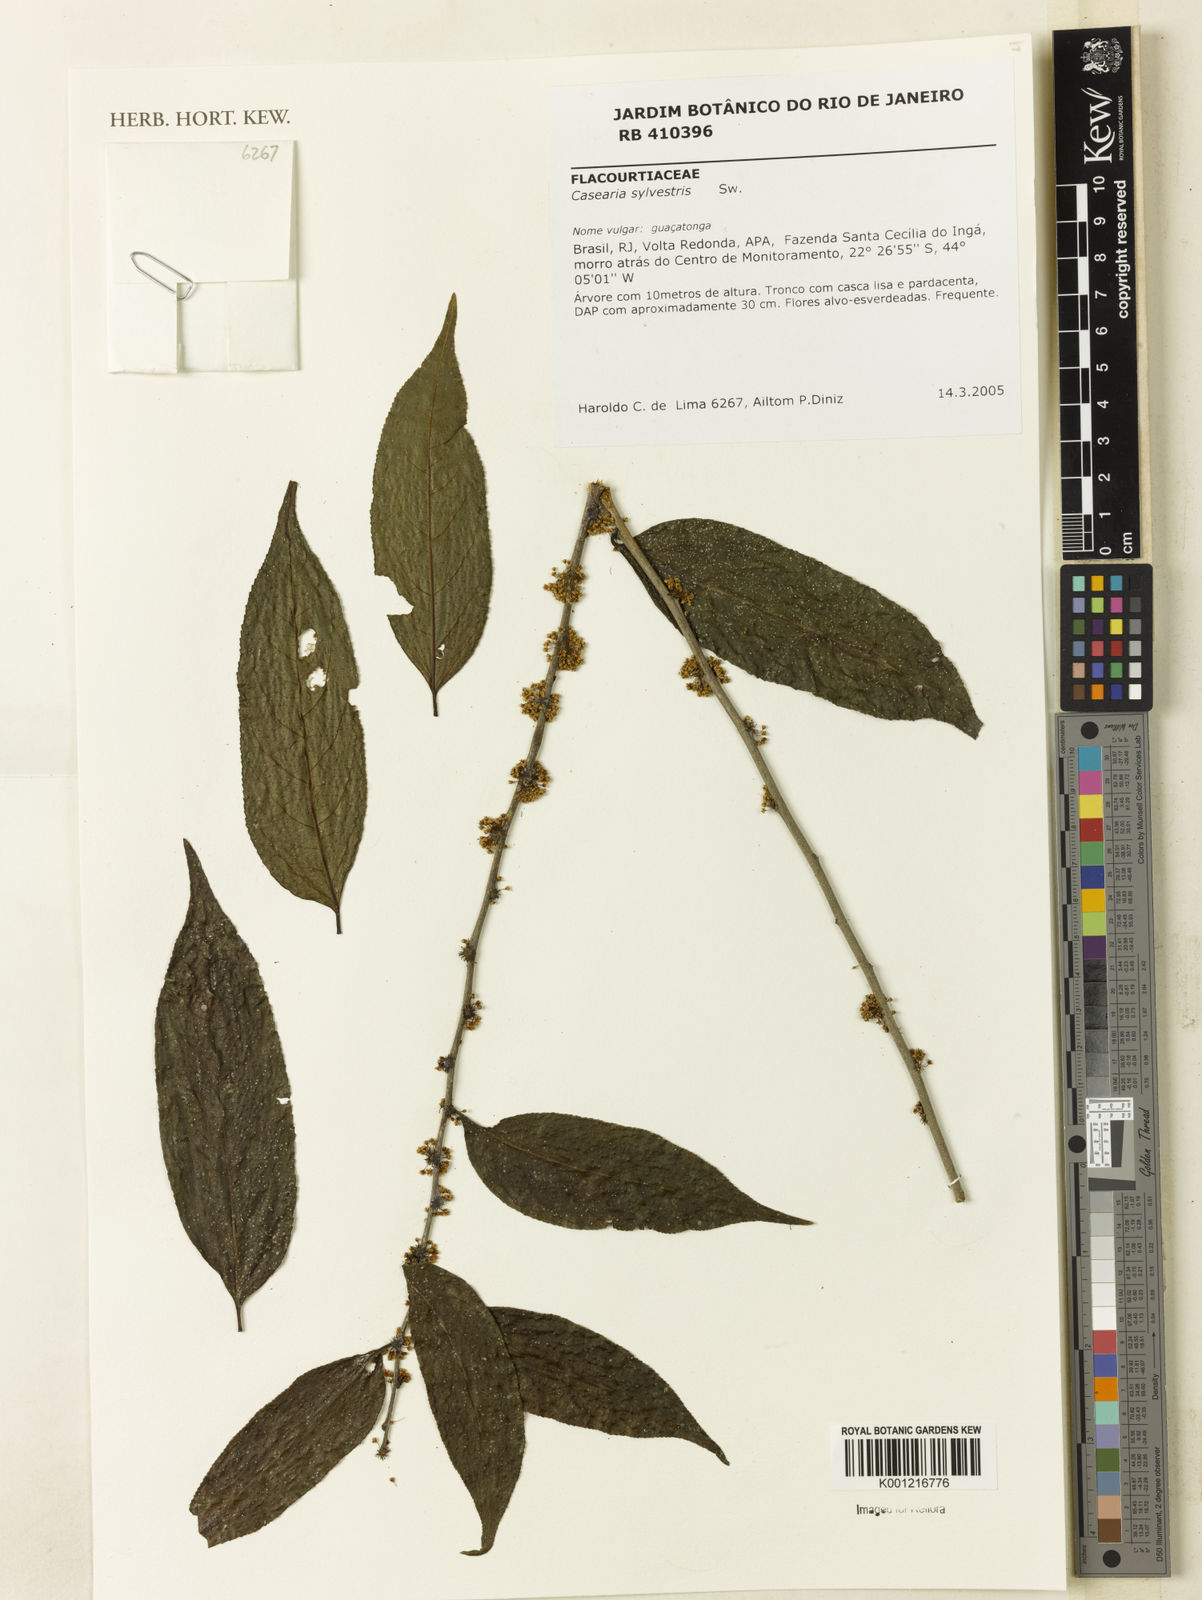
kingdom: Plantae
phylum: Tracheophyta
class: Magnoliopsida
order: Malpighiales
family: Salicaceae
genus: Casearia
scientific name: Casearia sylvestris
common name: Wild sage
